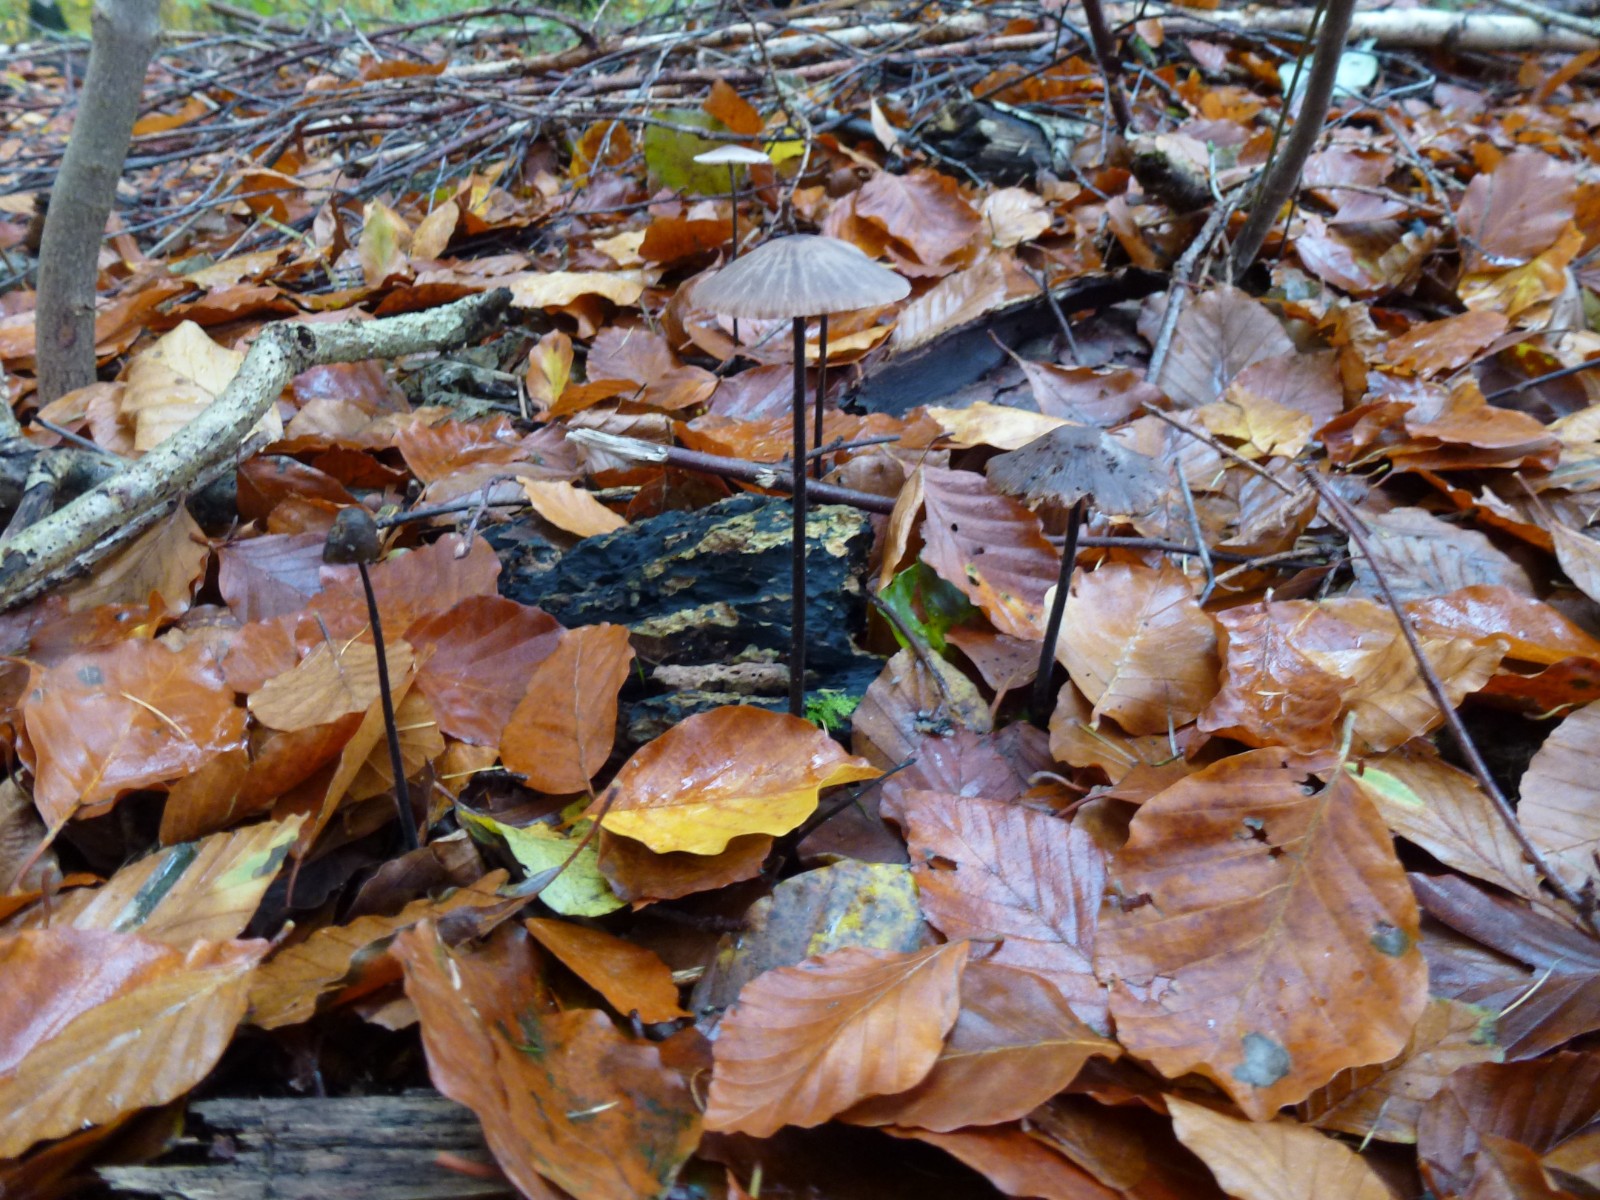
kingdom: Fungi
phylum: Basidiomycota
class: Agaricomycetes
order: Agaricales
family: Omphalotaceae
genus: Mycetinis
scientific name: Mycetinis alliaceus
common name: stor løghat
